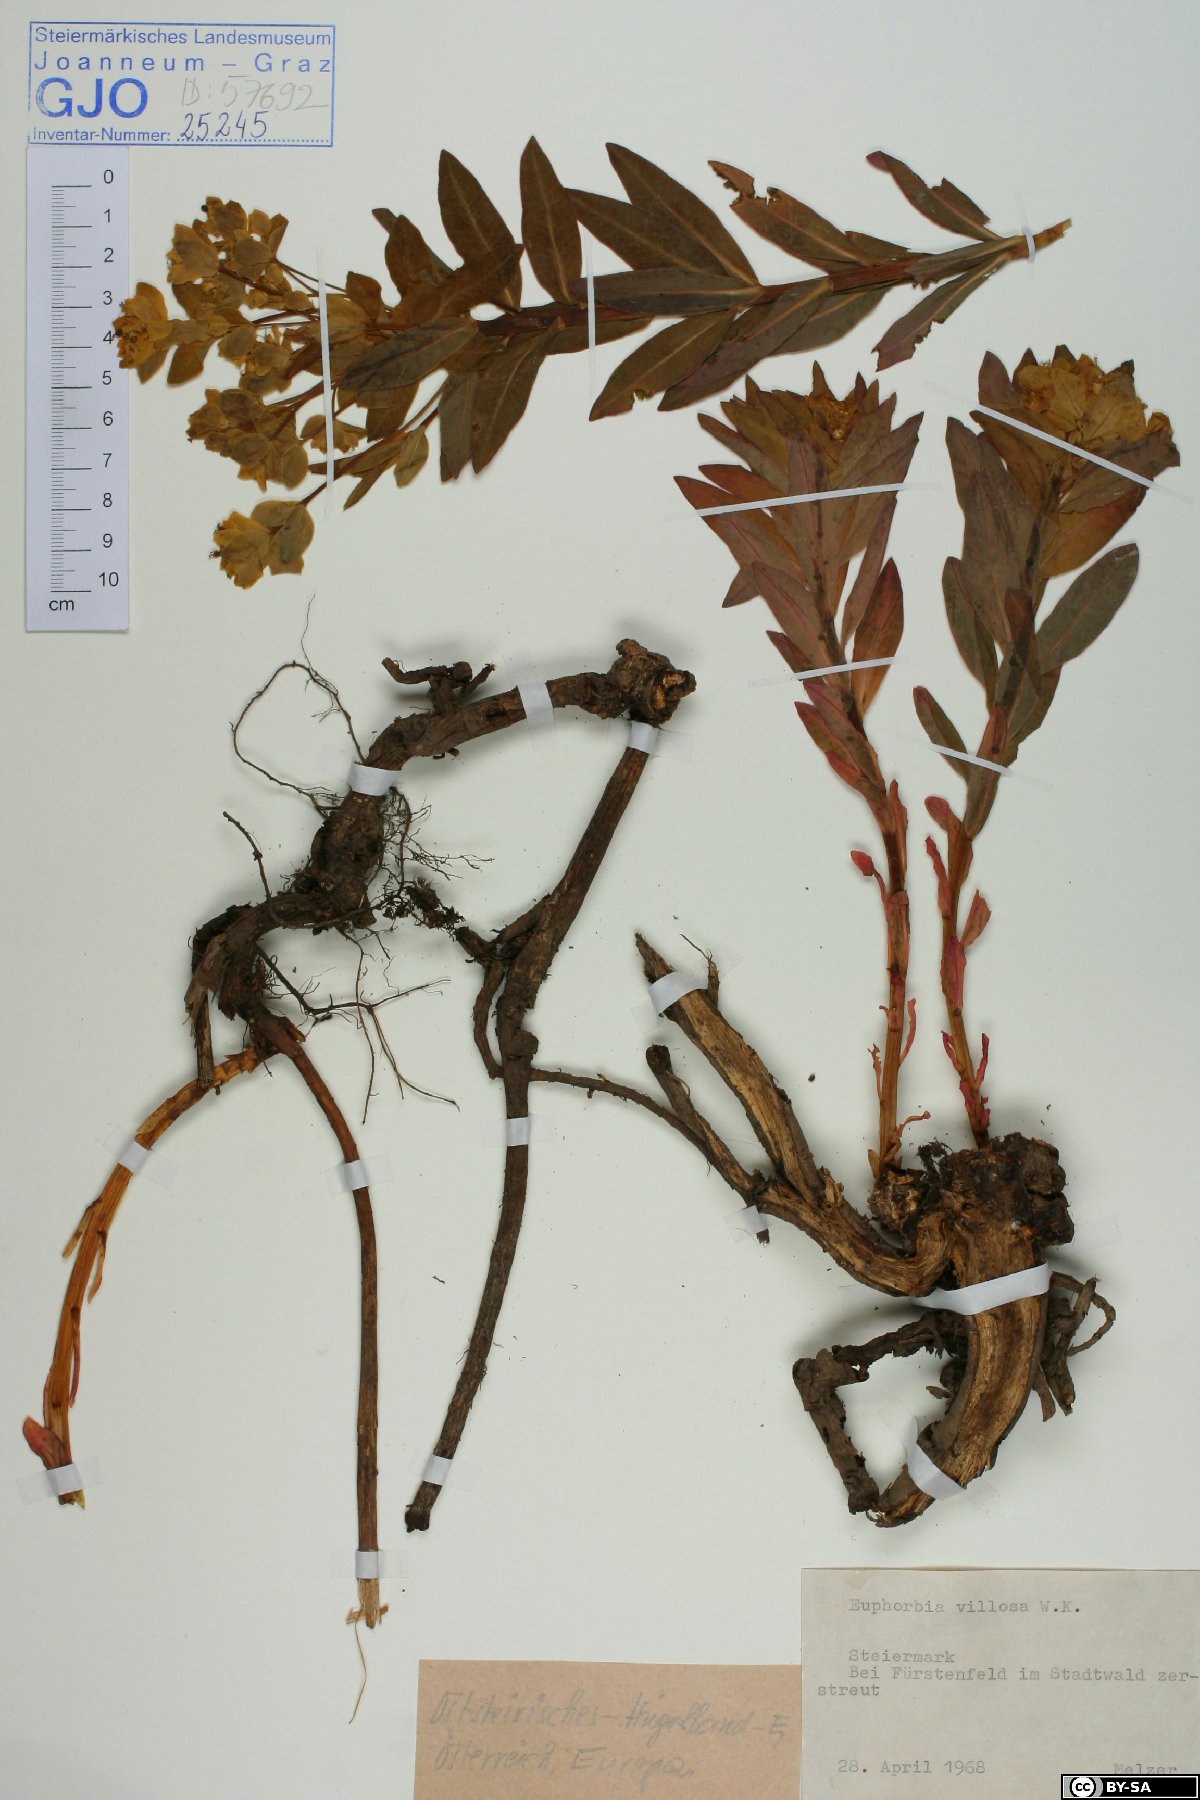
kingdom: Plantae
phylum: Tracheophyta
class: Magnoliopsida
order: Malpighiales
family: Euphorbiaceae
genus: Euphorbia
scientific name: Euphorbia illirica
